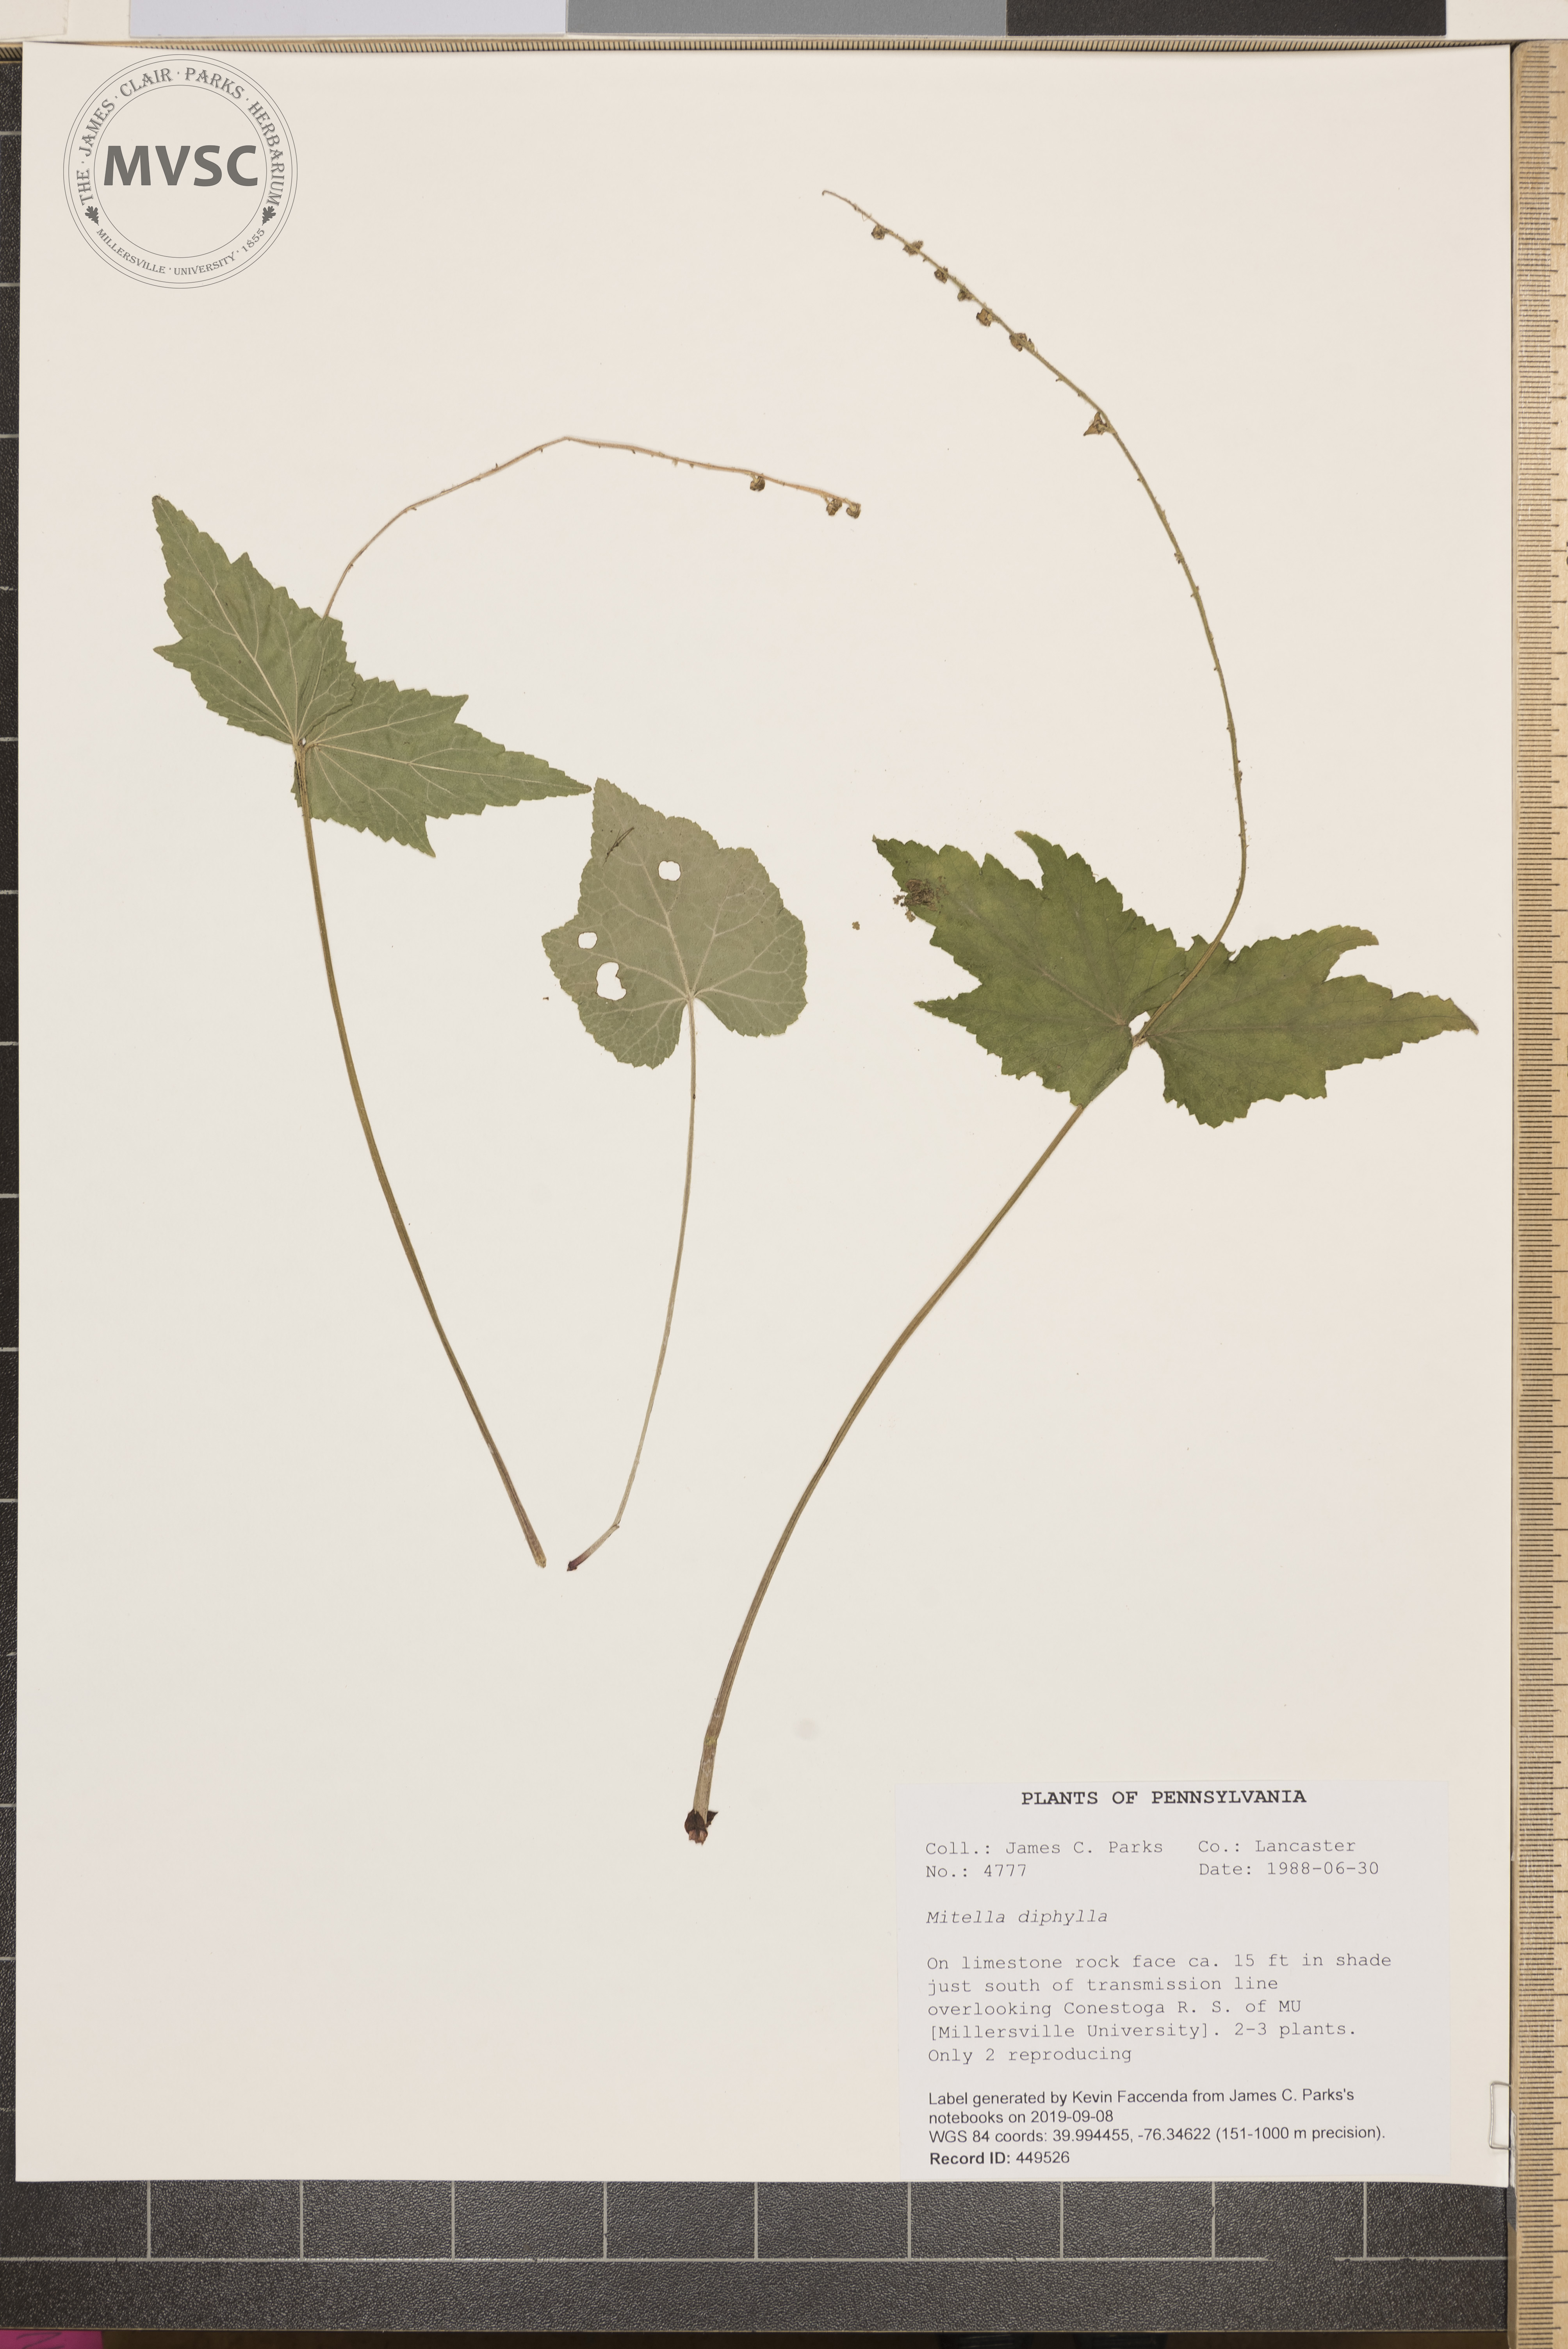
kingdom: Plantae
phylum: Tracheophyta
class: Magnoliopsida
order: Saxifragales
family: Saxifragaceae
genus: Mitella
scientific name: Mitella diphylla
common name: Coolwort
